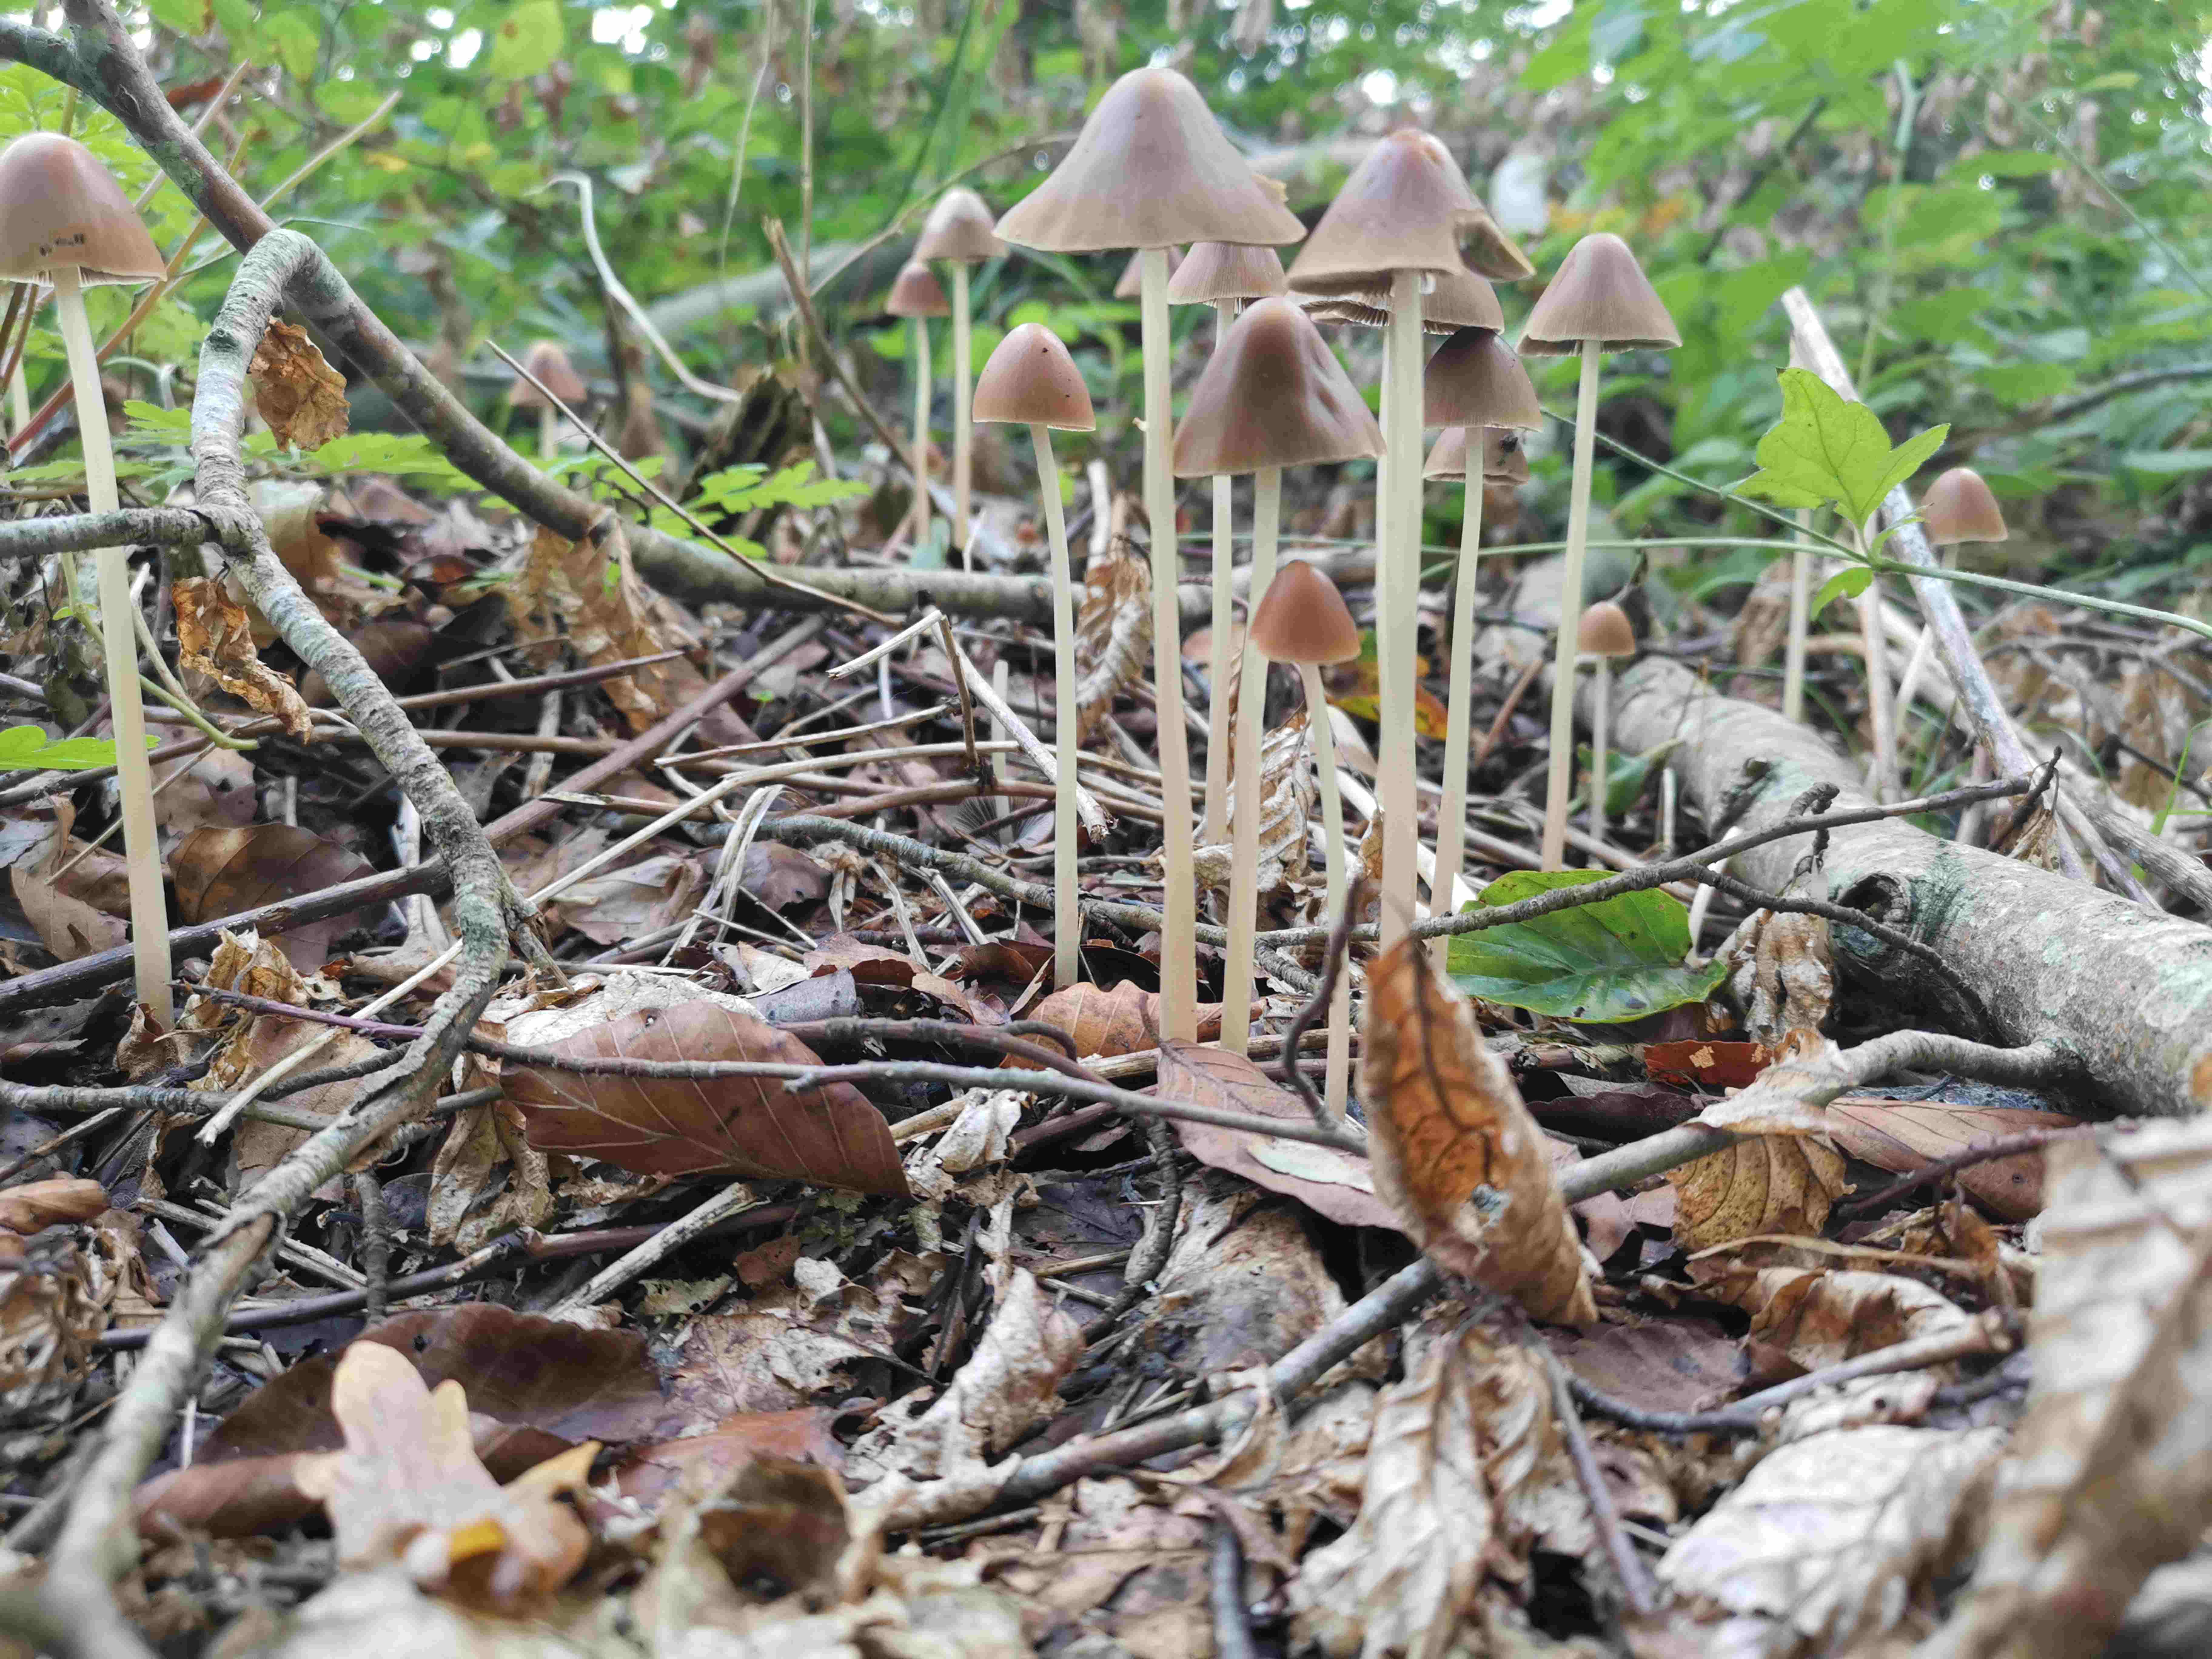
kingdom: Fungi
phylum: Basidiomycota
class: Agaricomycetes
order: Agaricales
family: Psathyrellaceae
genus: Parasola
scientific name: Parasola conopilea
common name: kegle-hjulhat
